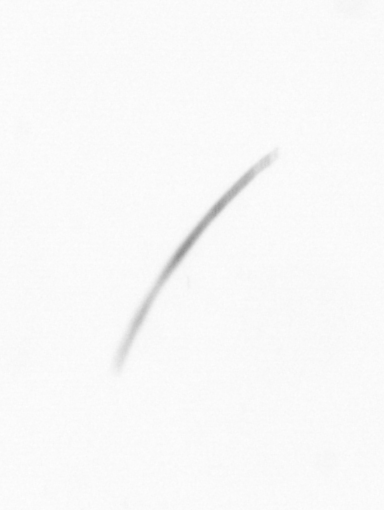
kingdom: Chromista
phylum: Ochrophyta
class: Bacillariophyceae
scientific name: Bacillariophyceae
